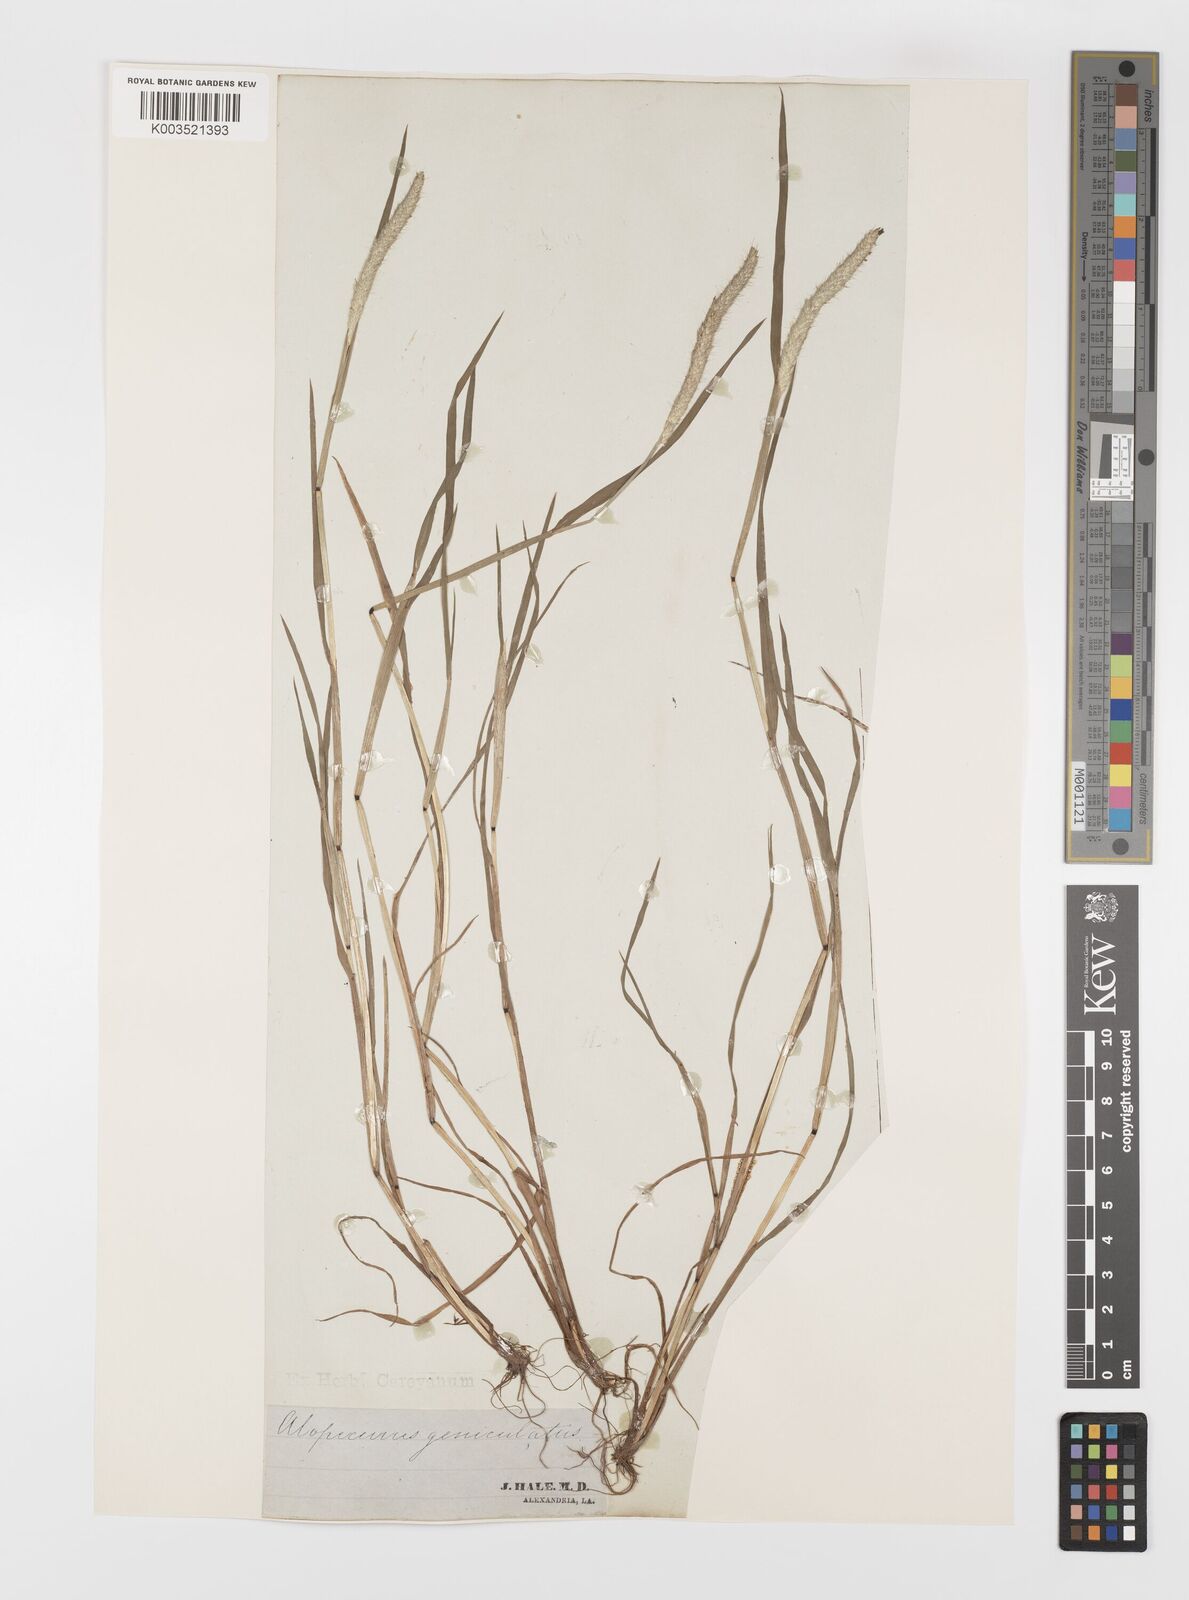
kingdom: Plantae
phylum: Tracheophyta
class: Liliopsida
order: Poales
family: Poaceae
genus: Alopecurus
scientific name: Alopecurus geniculatus
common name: Water foxtail
